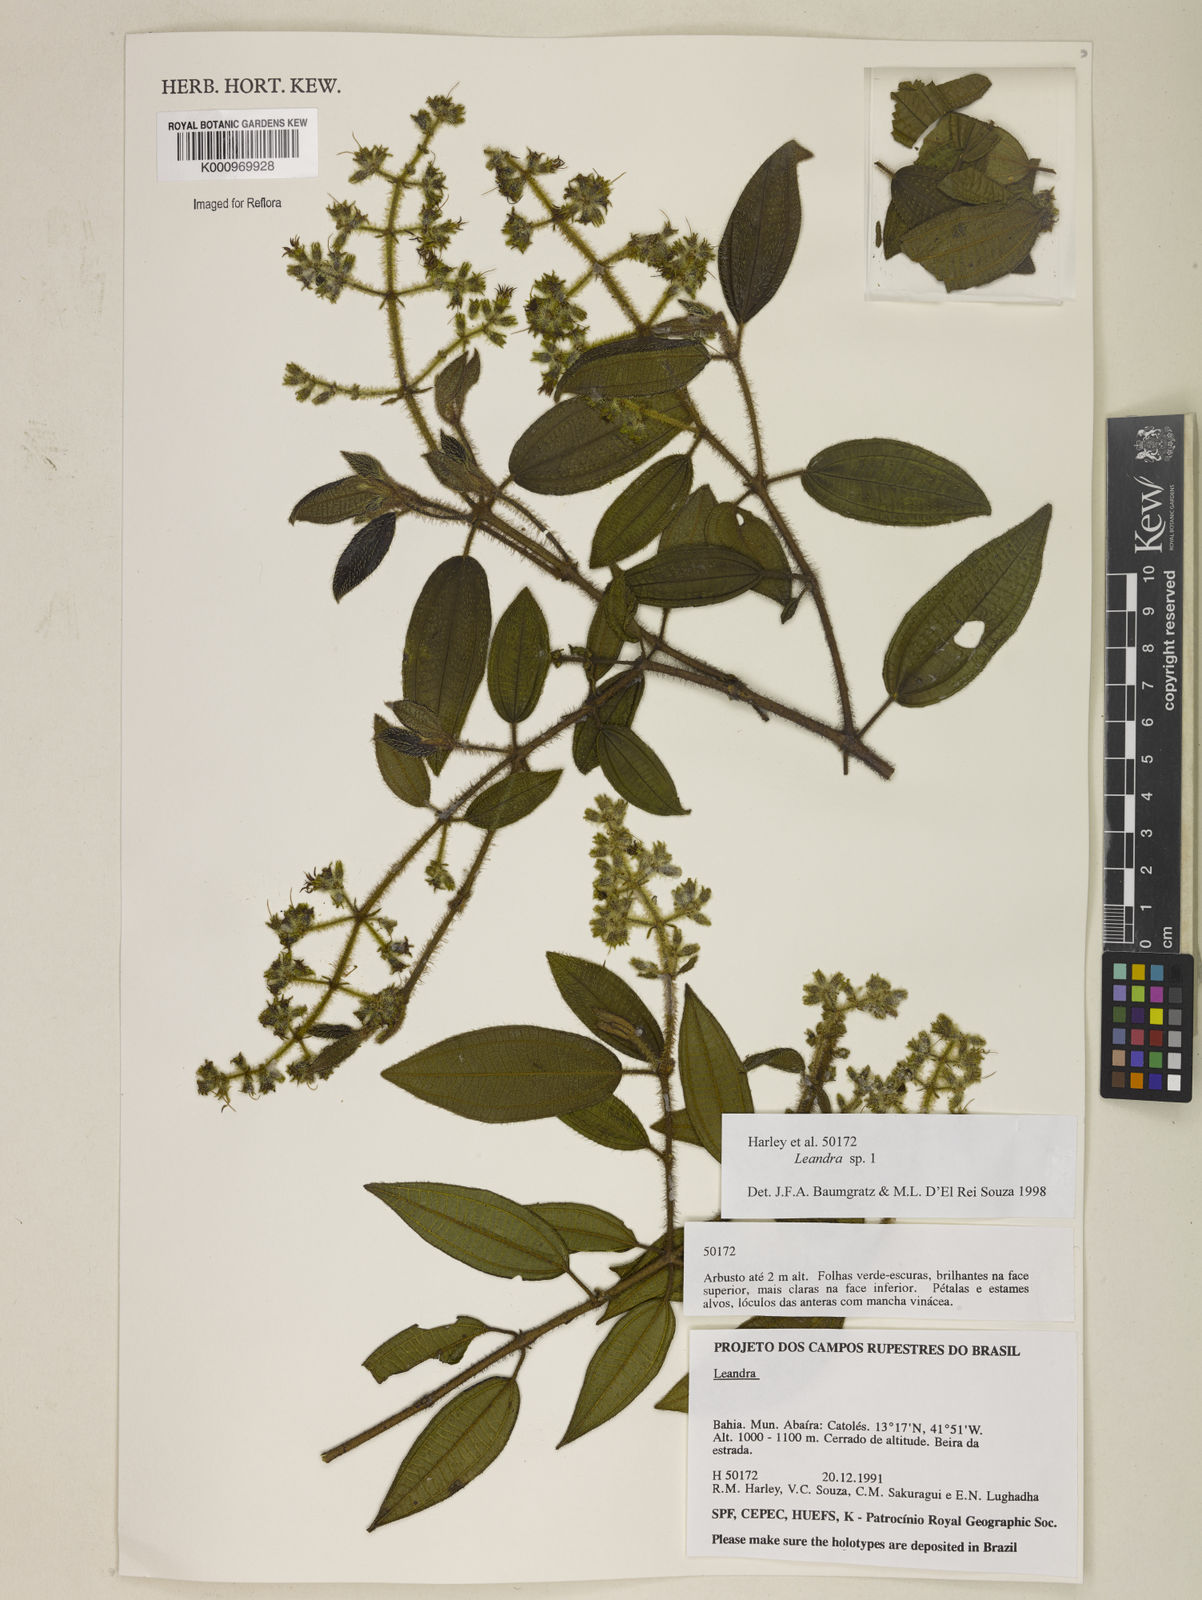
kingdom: Plantae
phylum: Tracheophyta
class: Magnoliopsida
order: Myrtales
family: Melastomataceae
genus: Miconia
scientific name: Miconia
